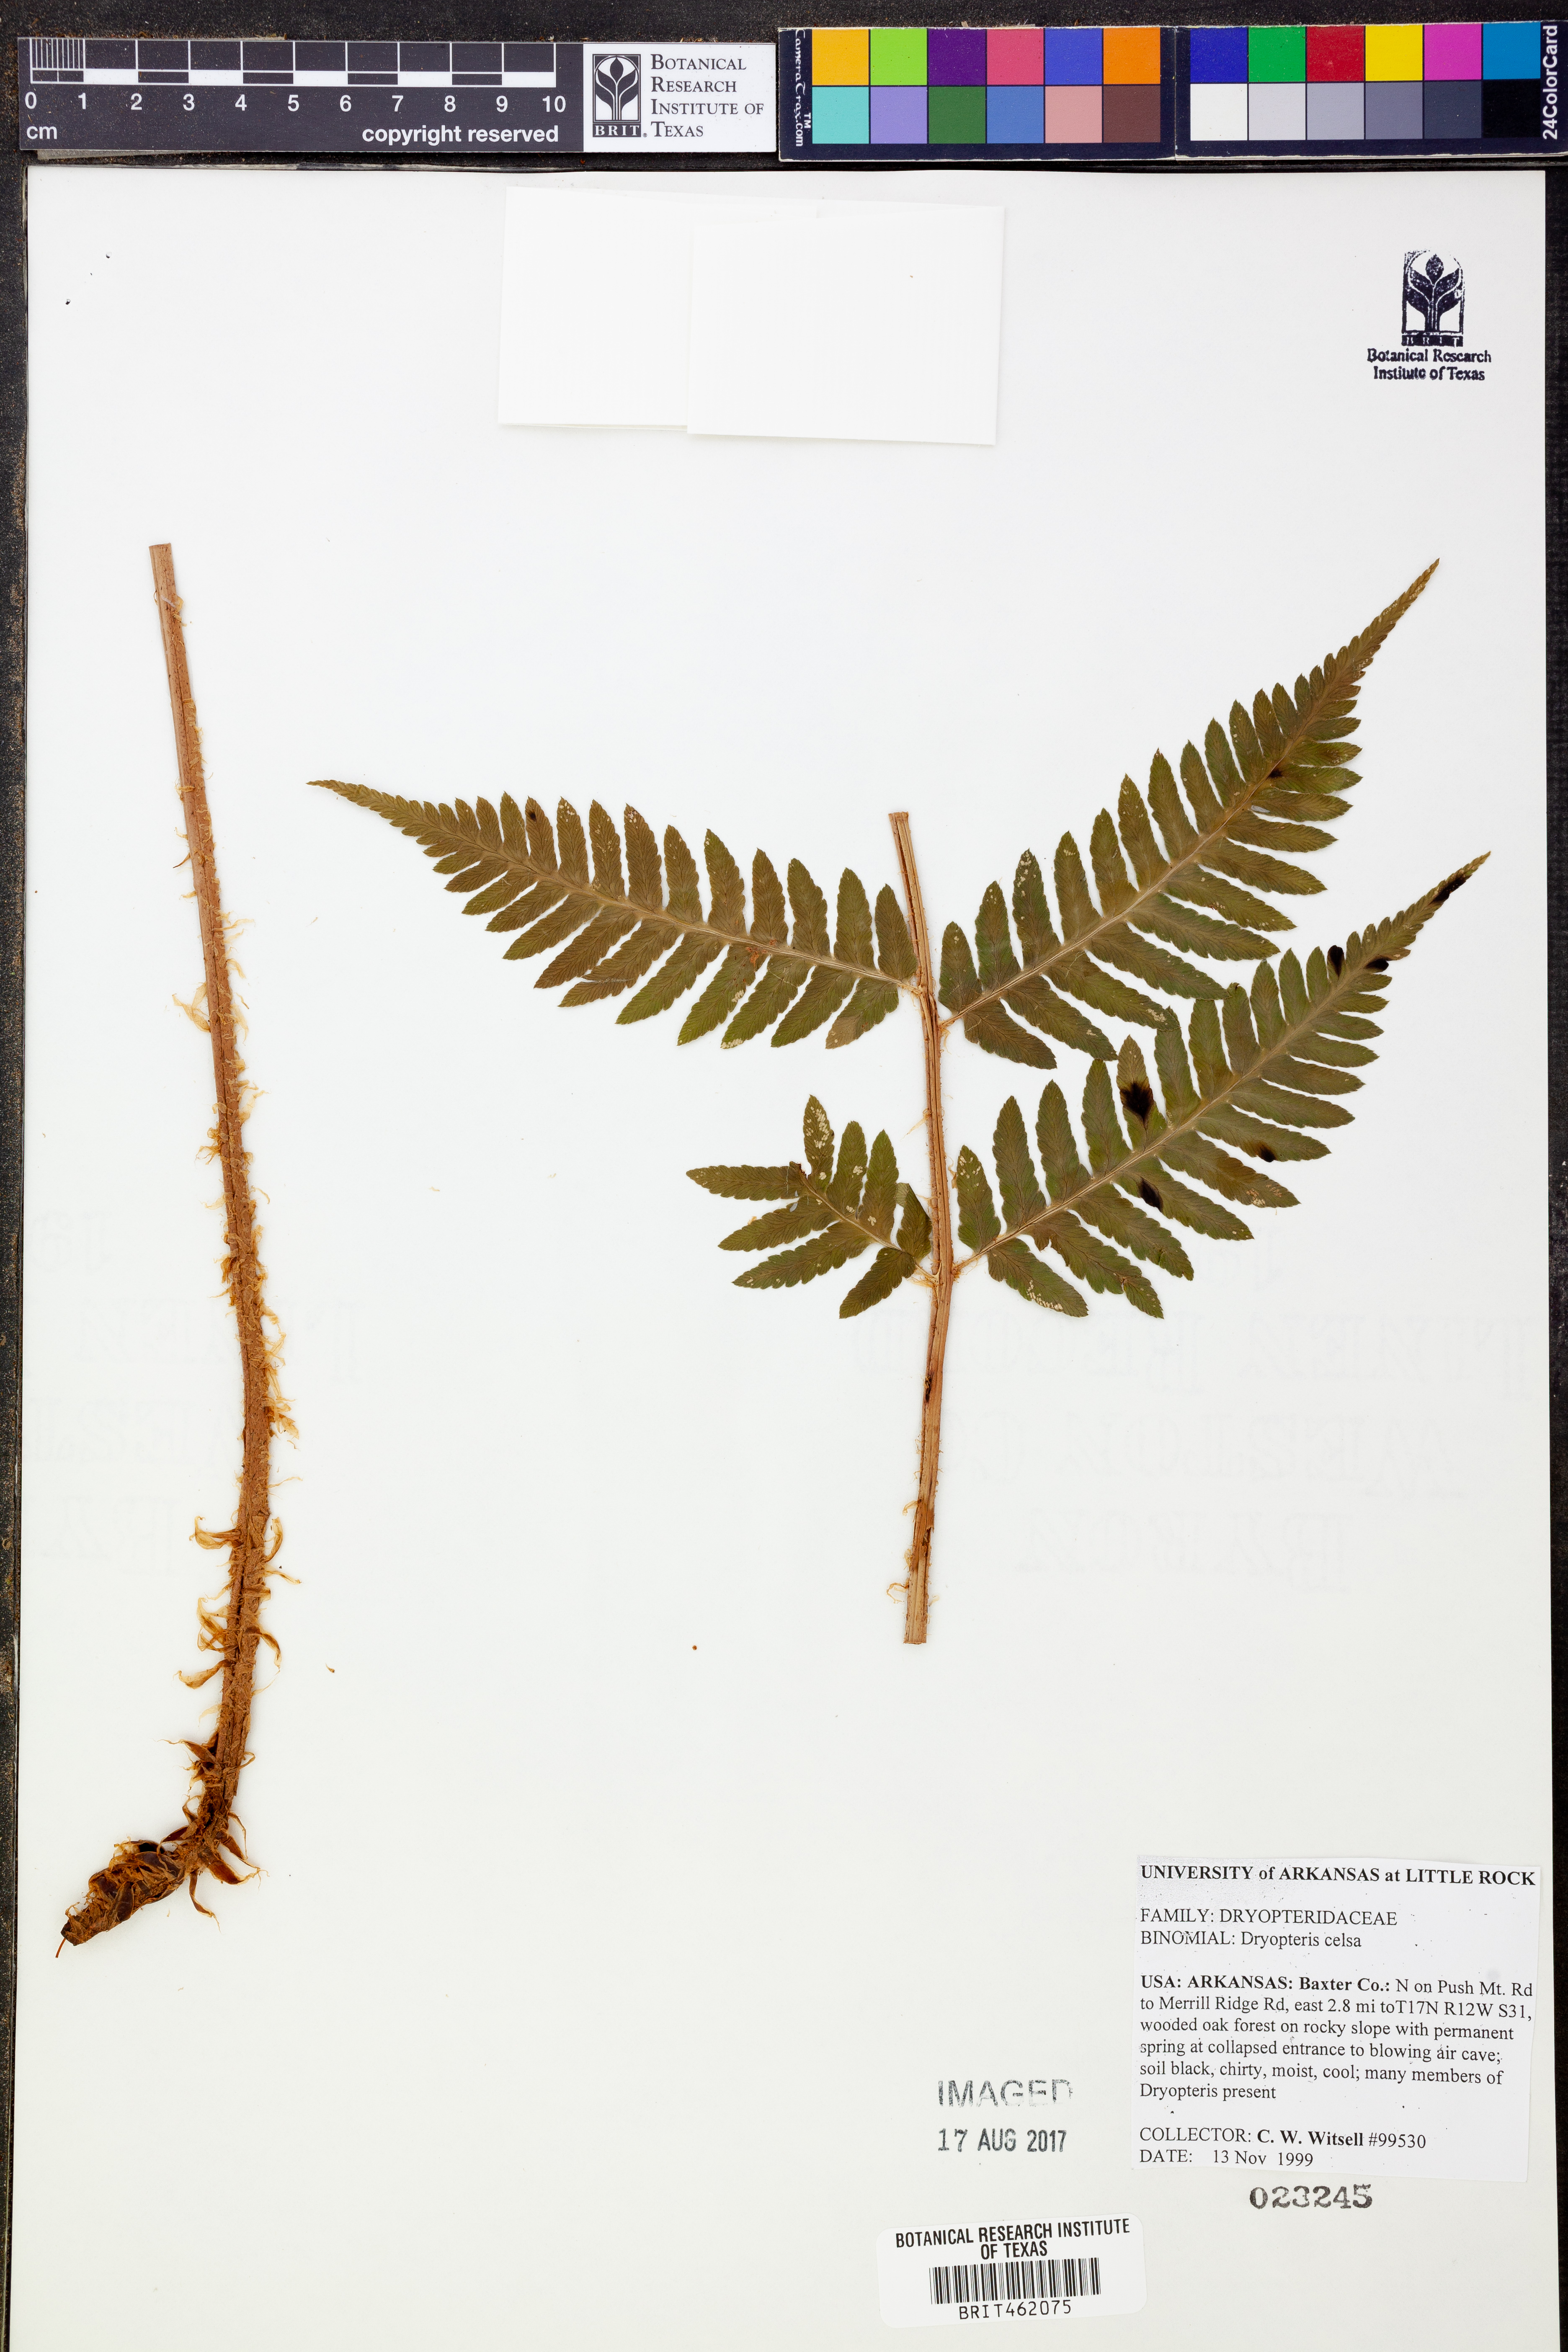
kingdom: Plantae
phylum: Tracheophyta
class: Polypodiopsida
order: Polypodiales
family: Dryopteridaceae
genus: Dryopteris
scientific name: Dryopteris celsa
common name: Log fern
